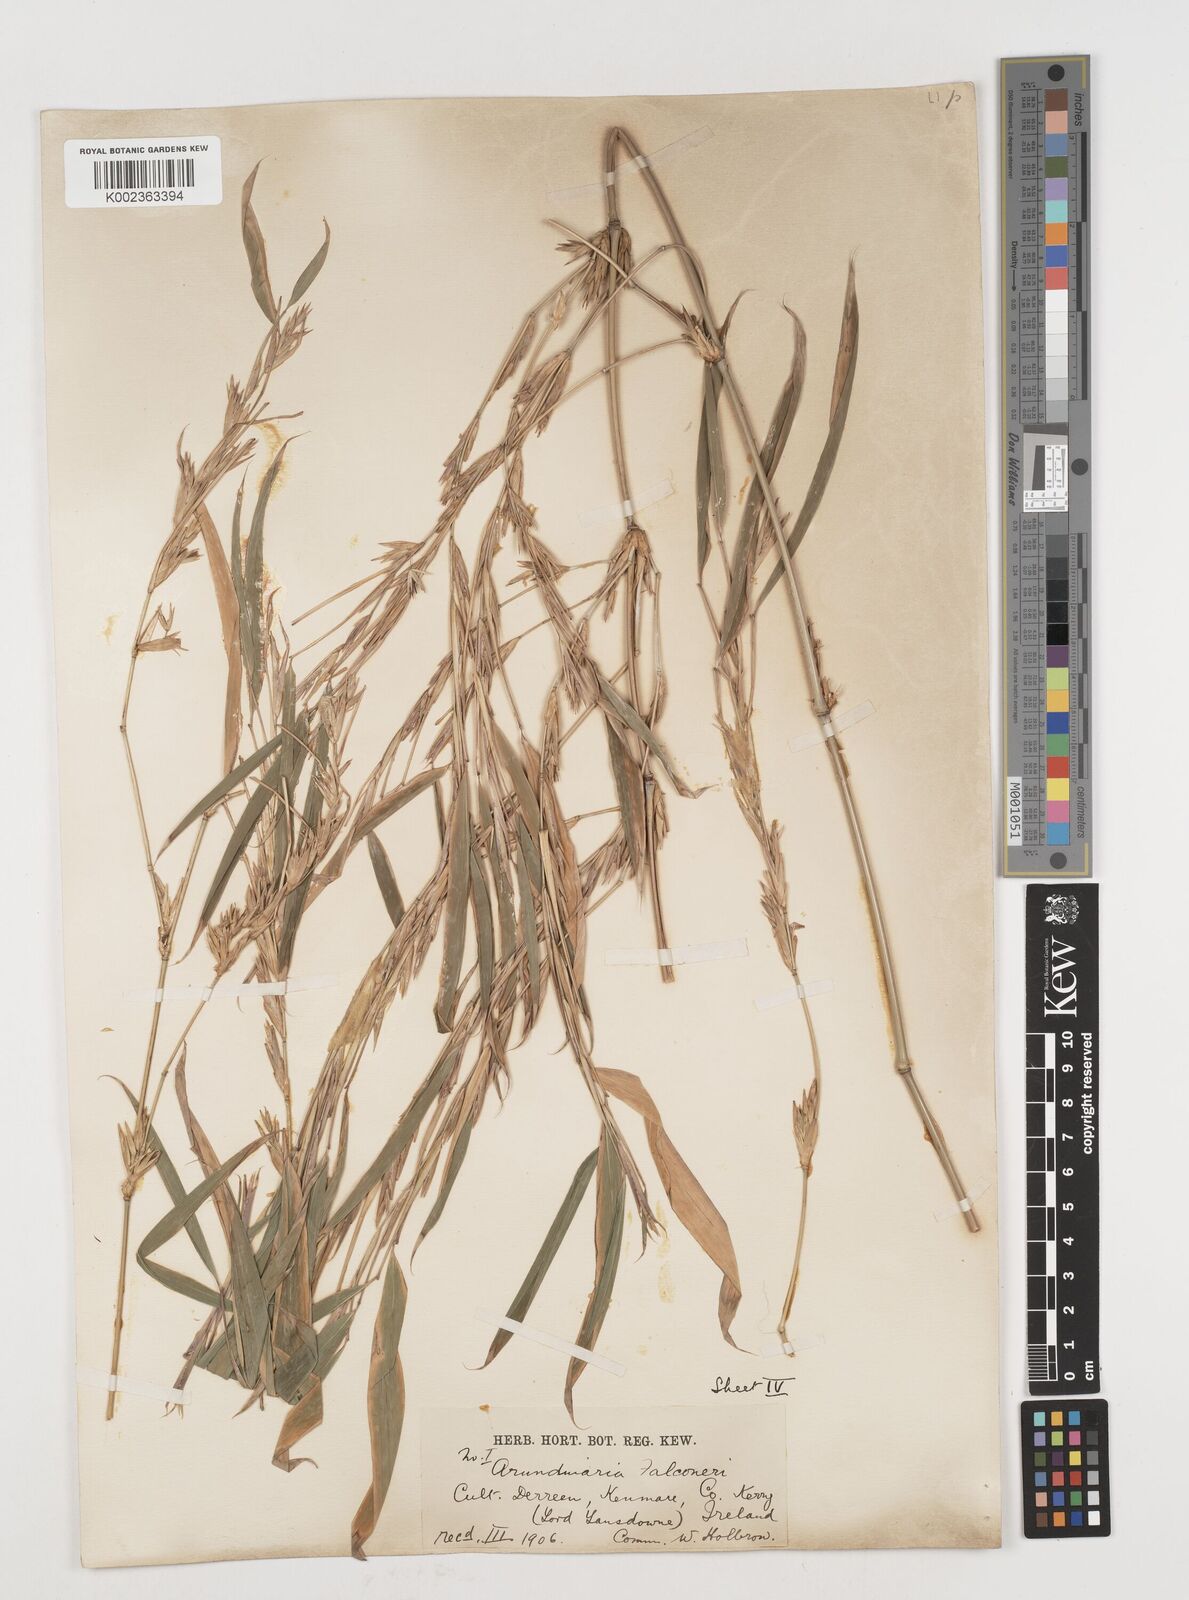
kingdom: Plantae
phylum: Tracheophyta
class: Liliopsida
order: Poales
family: Poaceae
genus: Himalayacalamus
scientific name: Himalayacalamus
